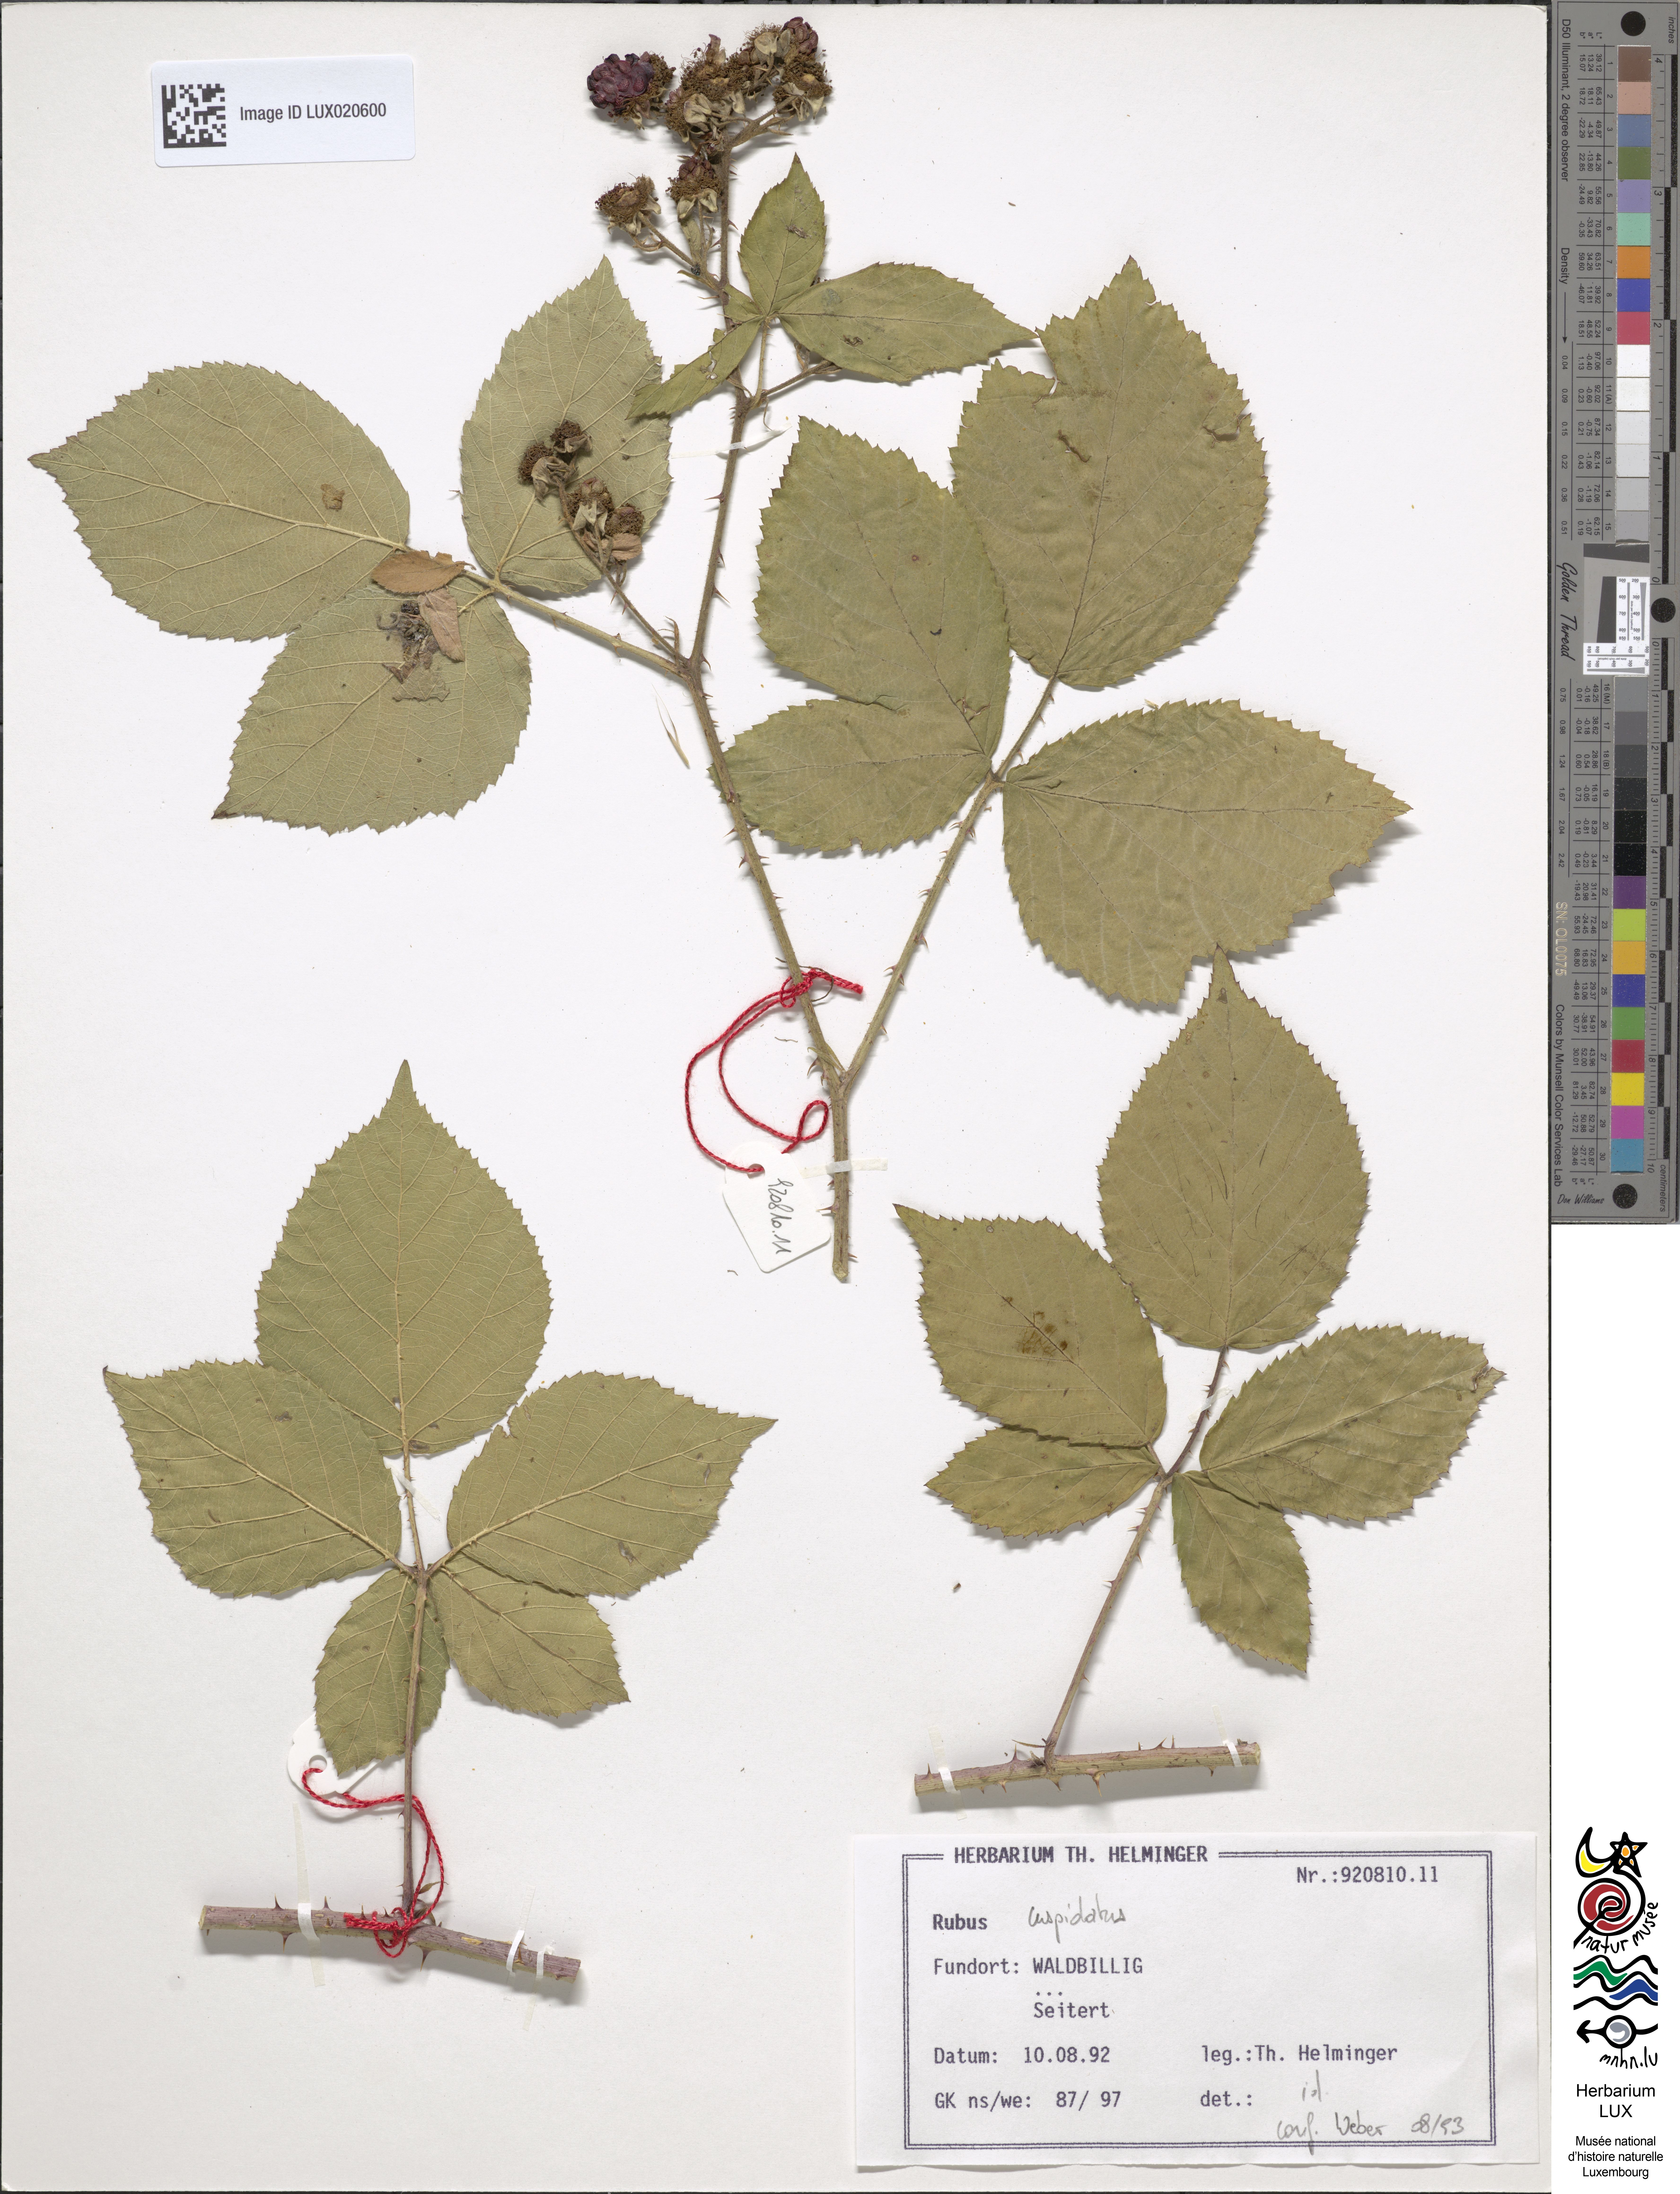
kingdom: Plantae
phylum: Tracheophyta
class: Magnoliopsida
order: Rosales
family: Rosaceae
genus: Rubus
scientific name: Rubus cuspidatus
